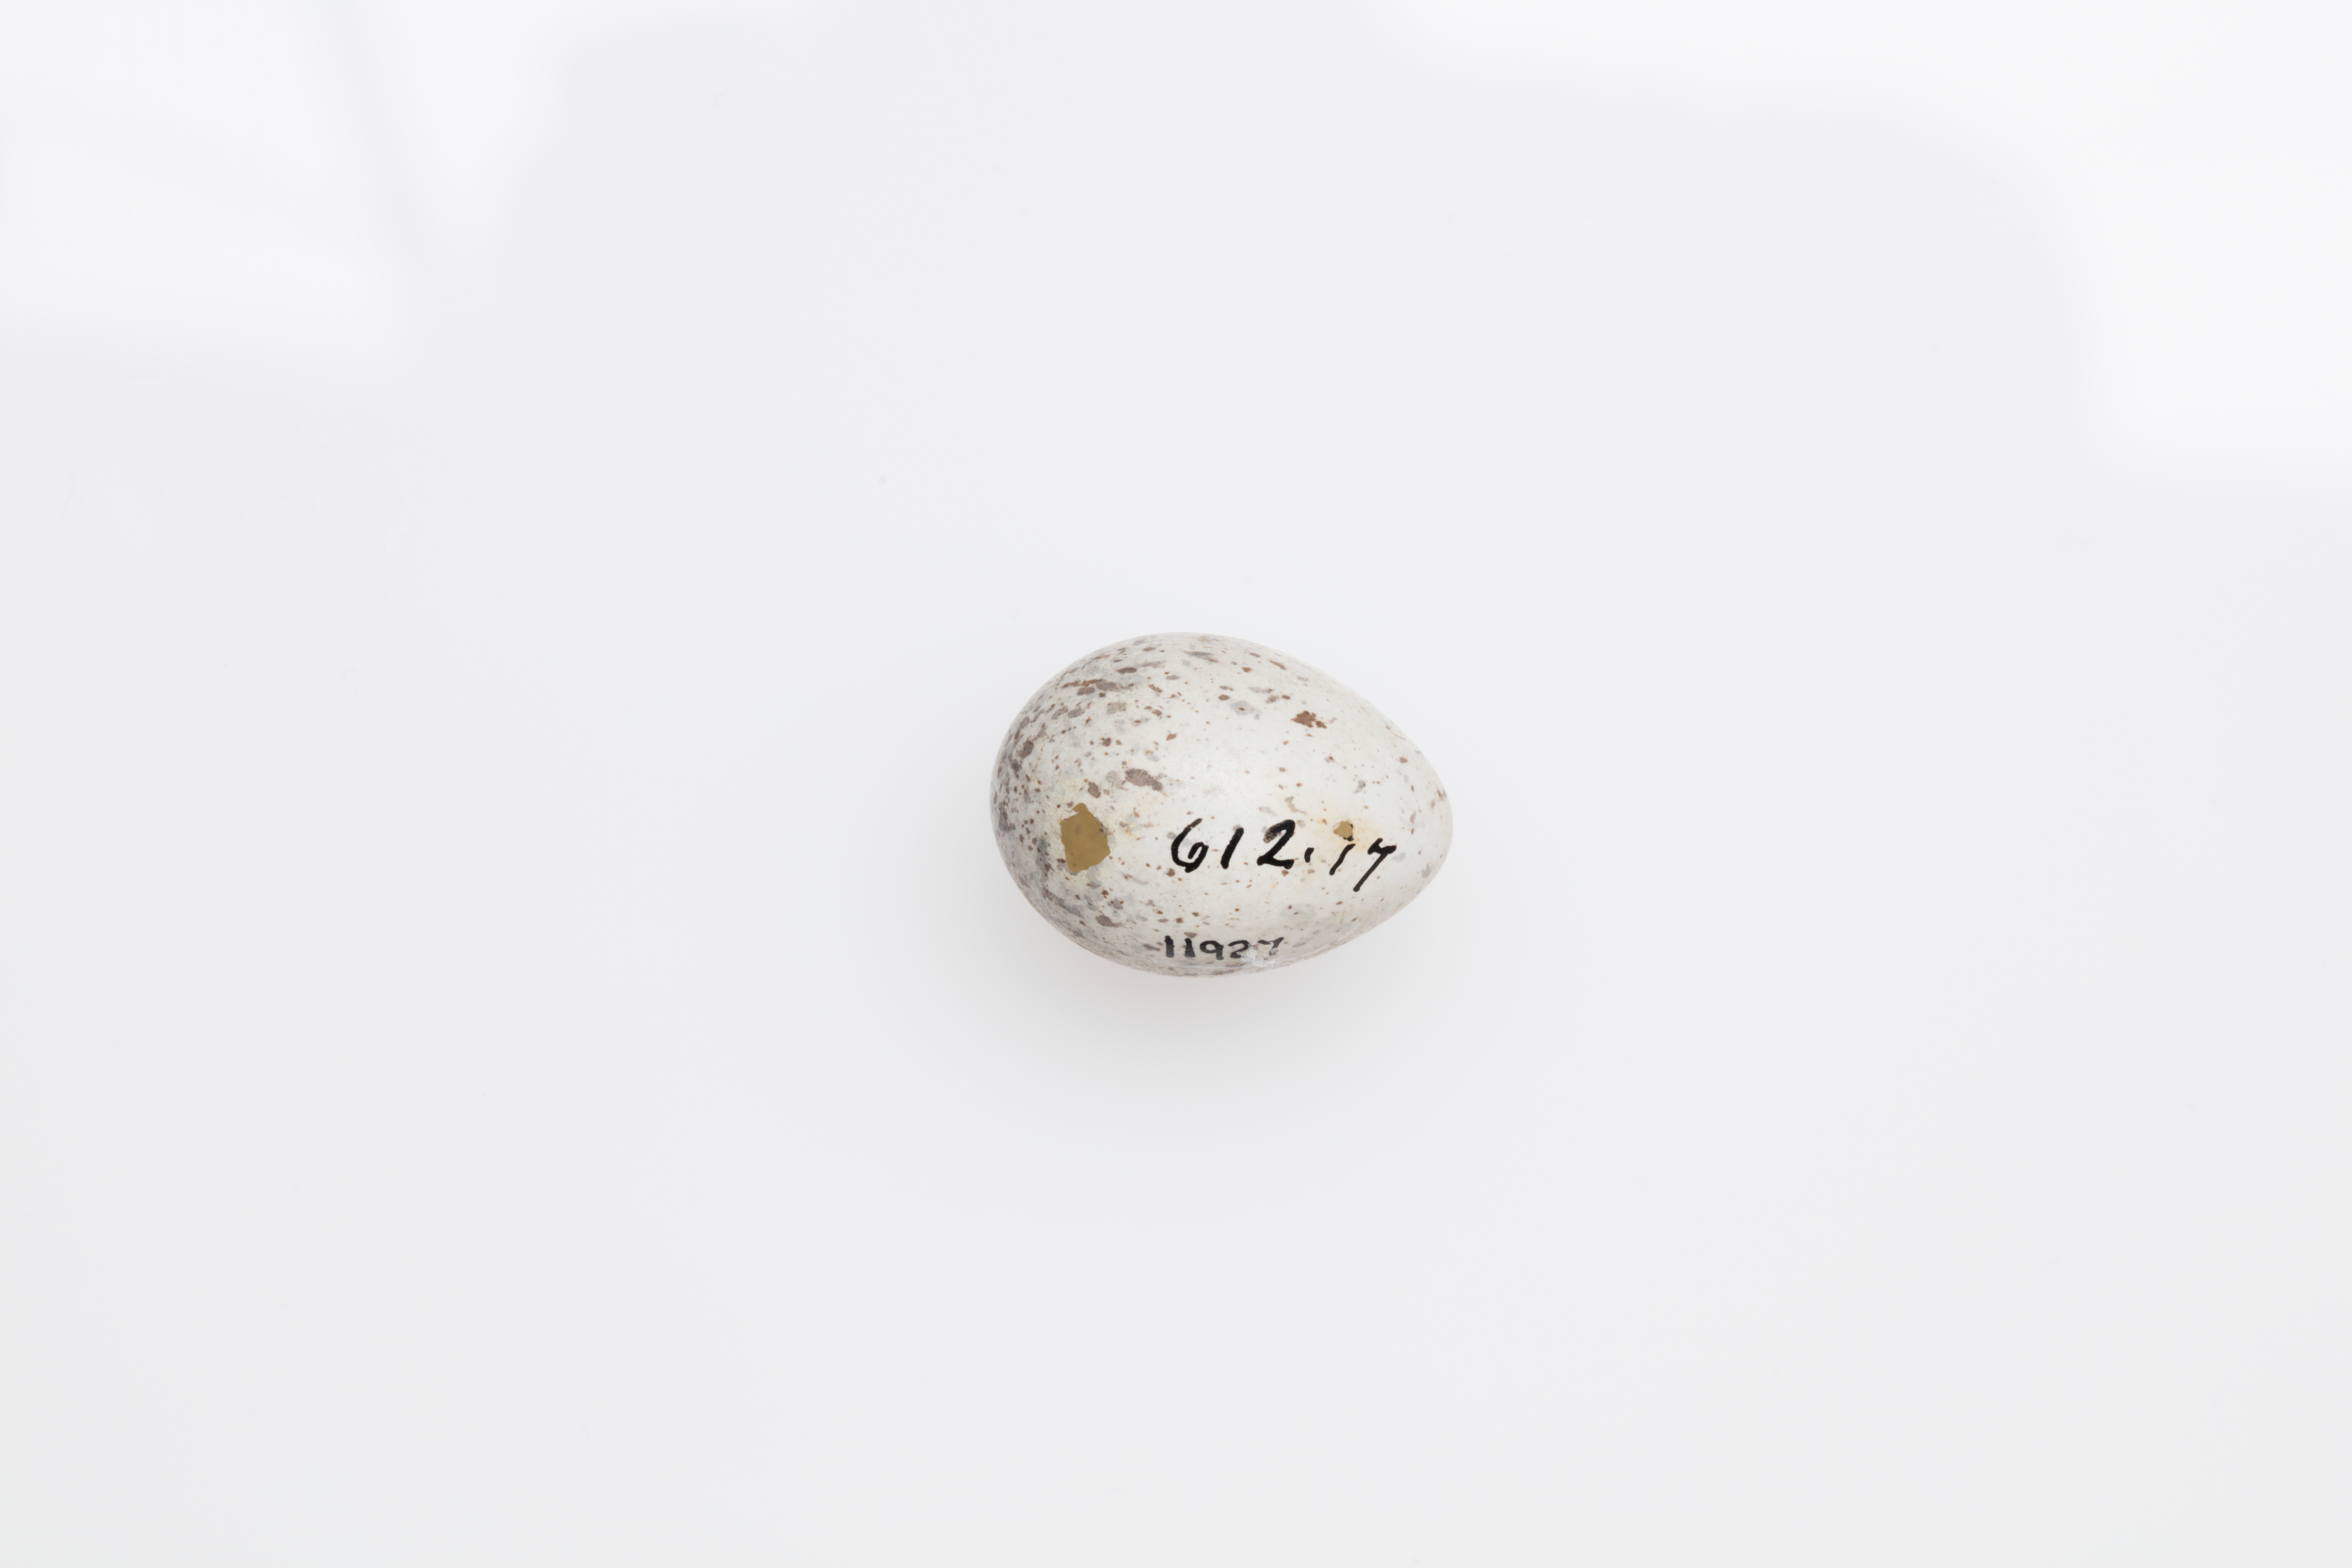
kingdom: Animalia
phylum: Chordata
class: Aves
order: Passeriformes
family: Motacillidae
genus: Motacilla
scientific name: Motacilla alba
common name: White wagtail
